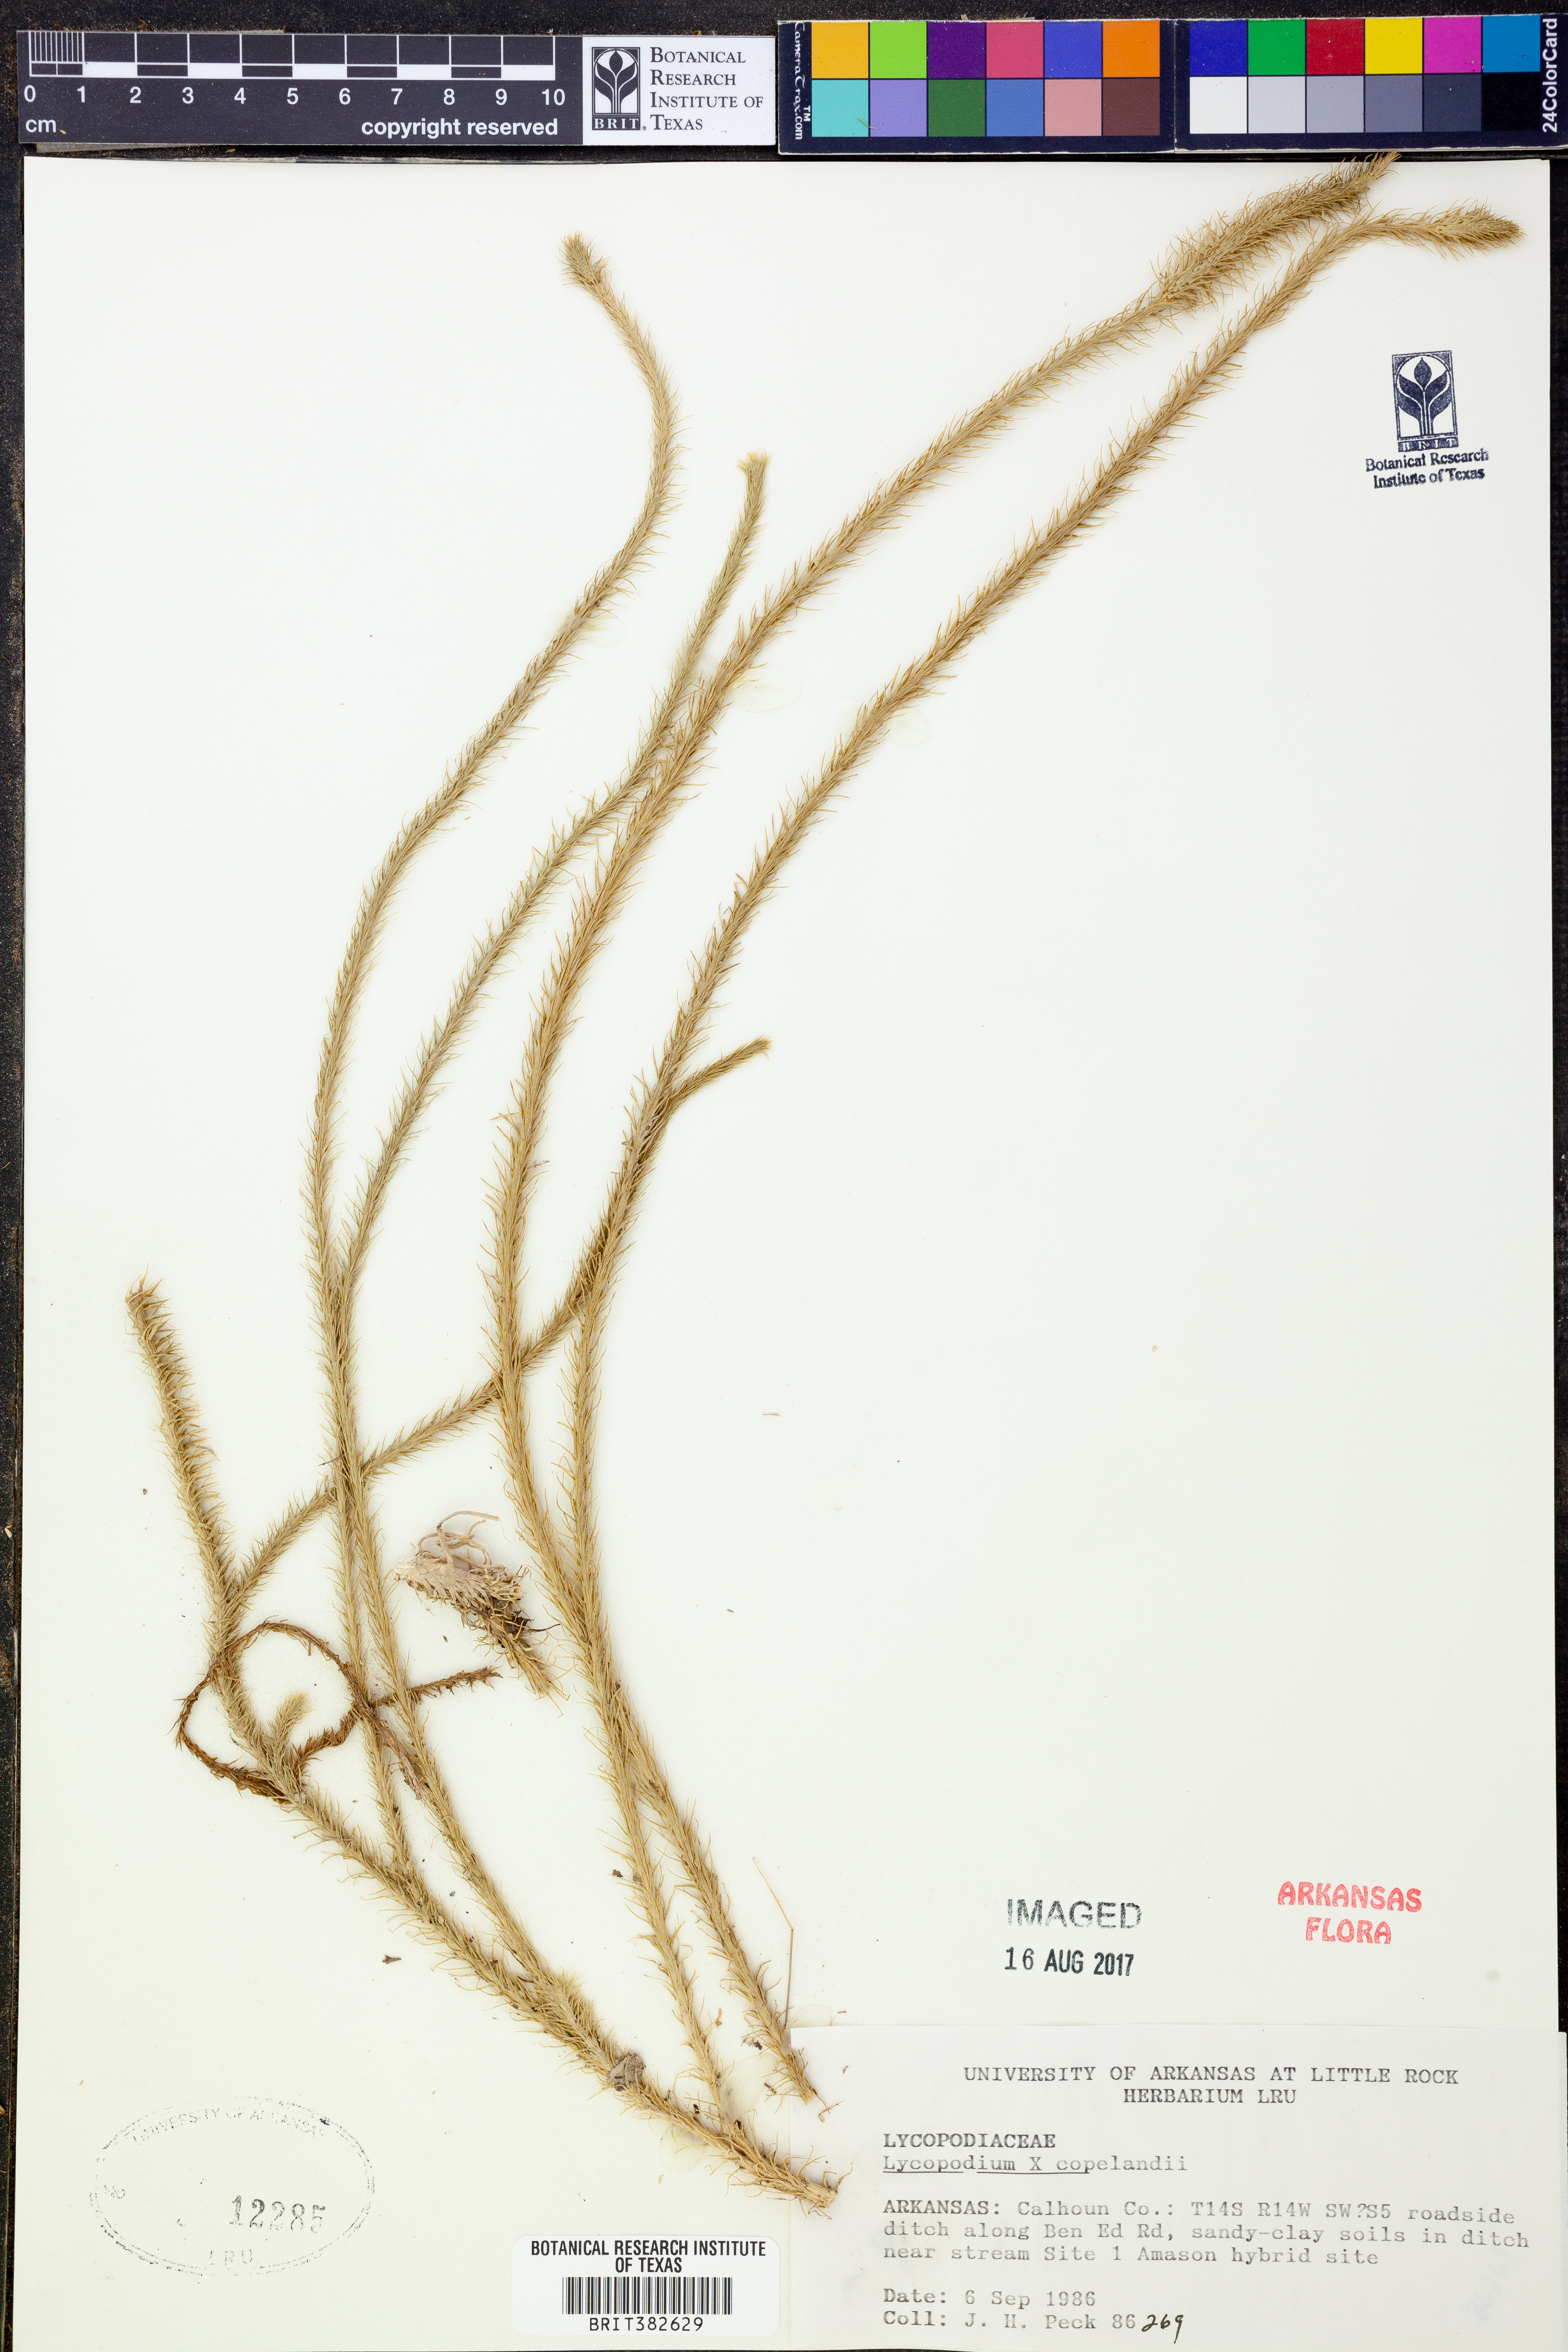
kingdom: Plantae
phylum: Tracheophyta
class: Lycopodiopsida
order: Lycopodiales
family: Lycopodiaceae
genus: Lycopodiella
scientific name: Lycopodiella copelandii
